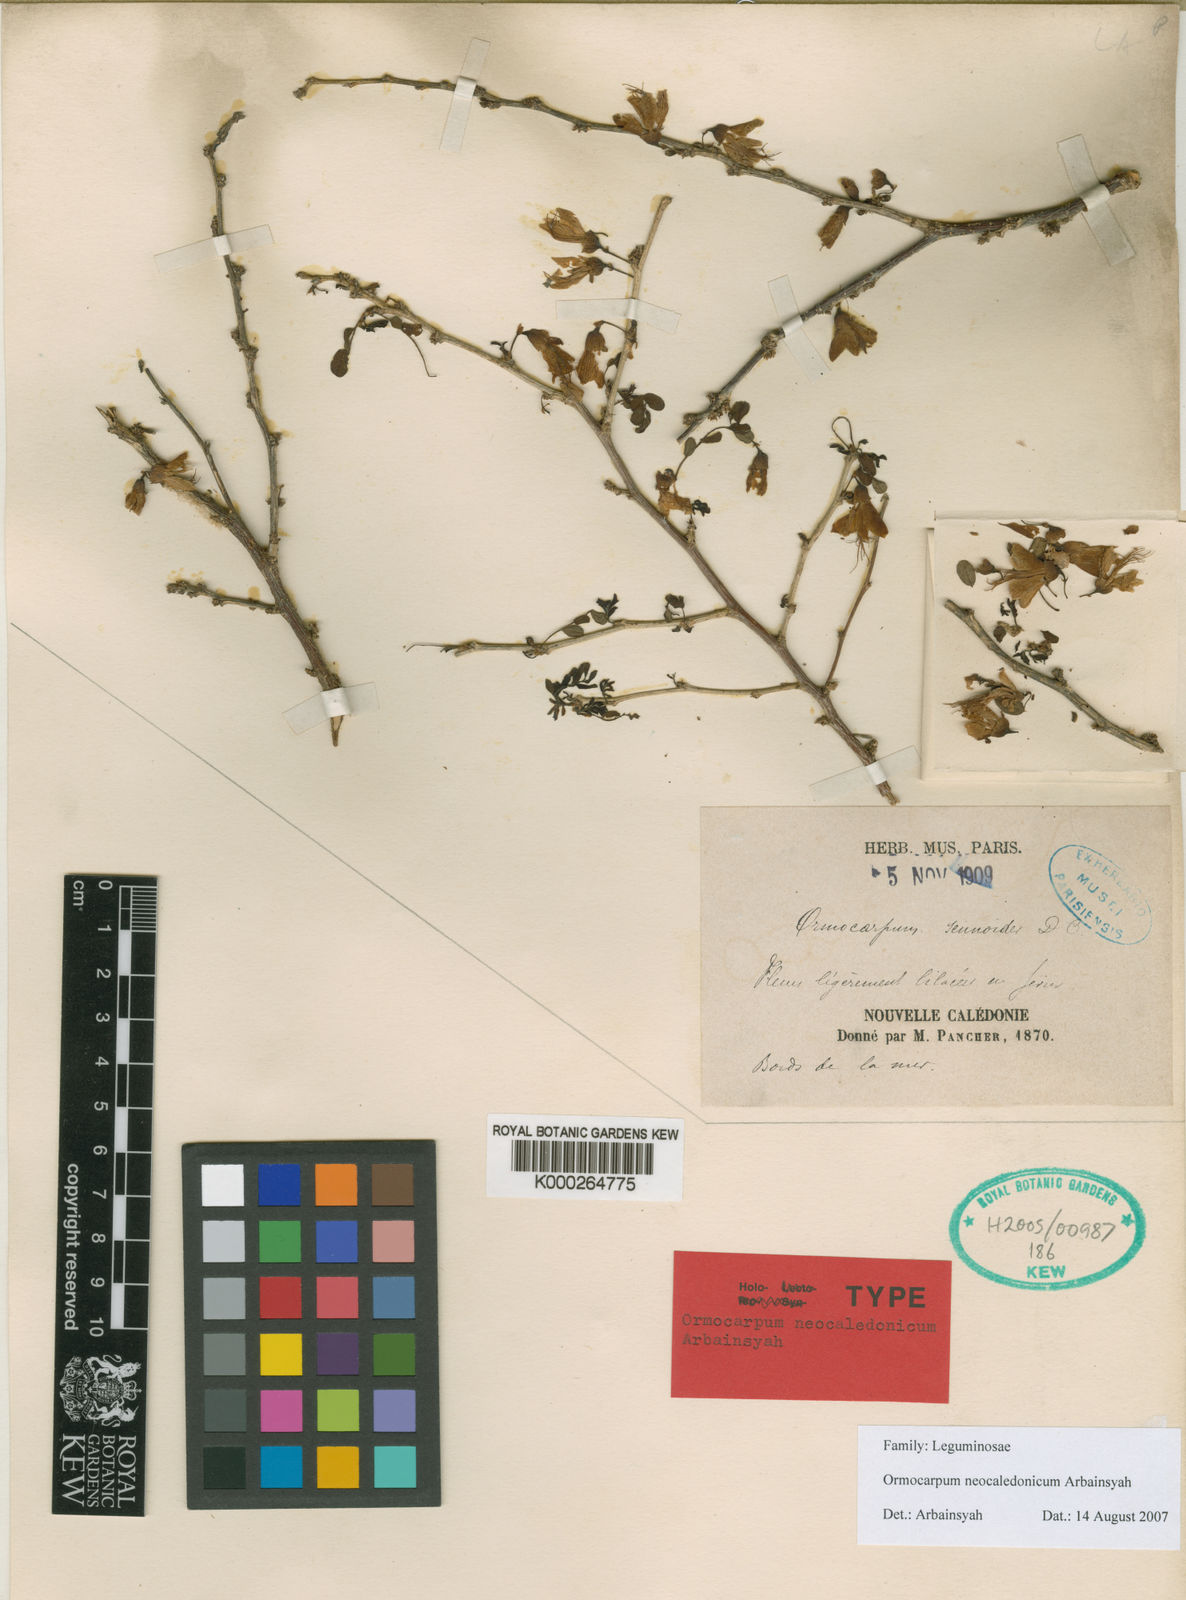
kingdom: Plantae
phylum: Tracheophyta
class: Magnoliopsida
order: Fabales
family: Fabaceae
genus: Ormocarpum
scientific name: Ormocarpum
